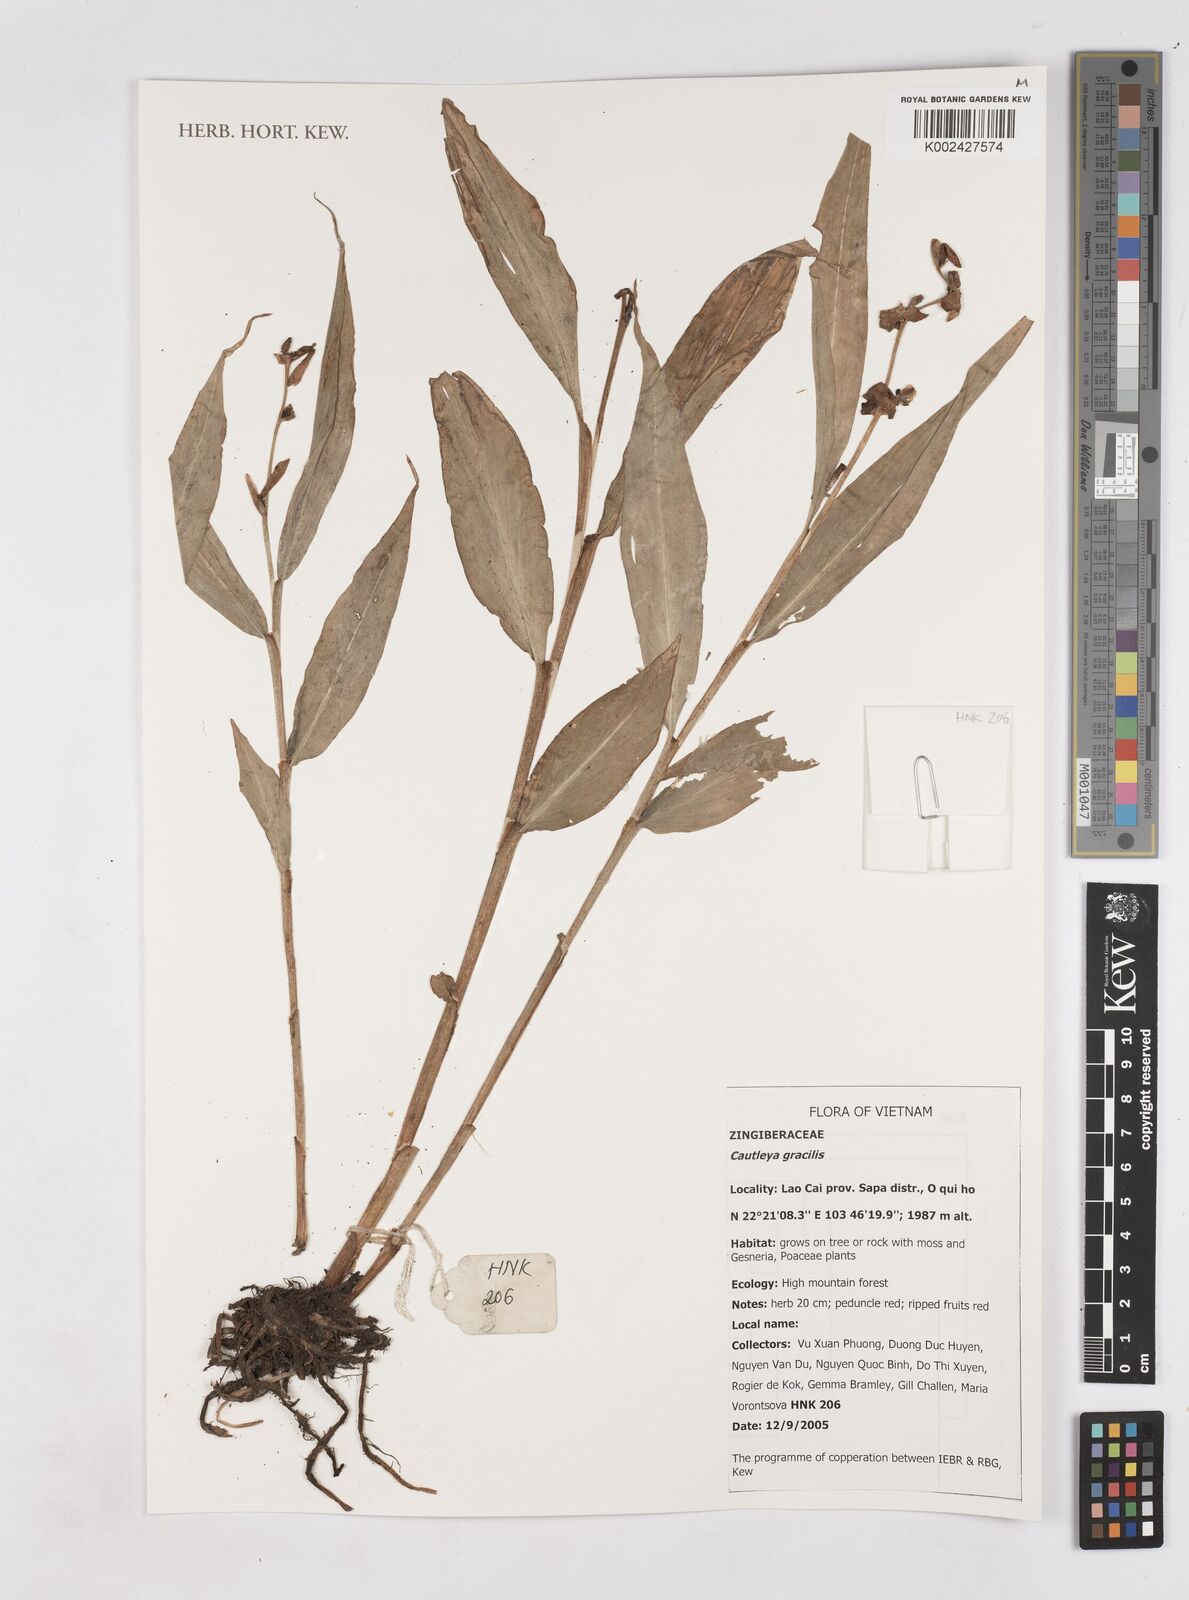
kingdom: Plantae
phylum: Tracheophyta
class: Liliopsida
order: Zingiberales
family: Zingiberaceae
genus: Cautleya
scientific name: Cautleya gracilis
